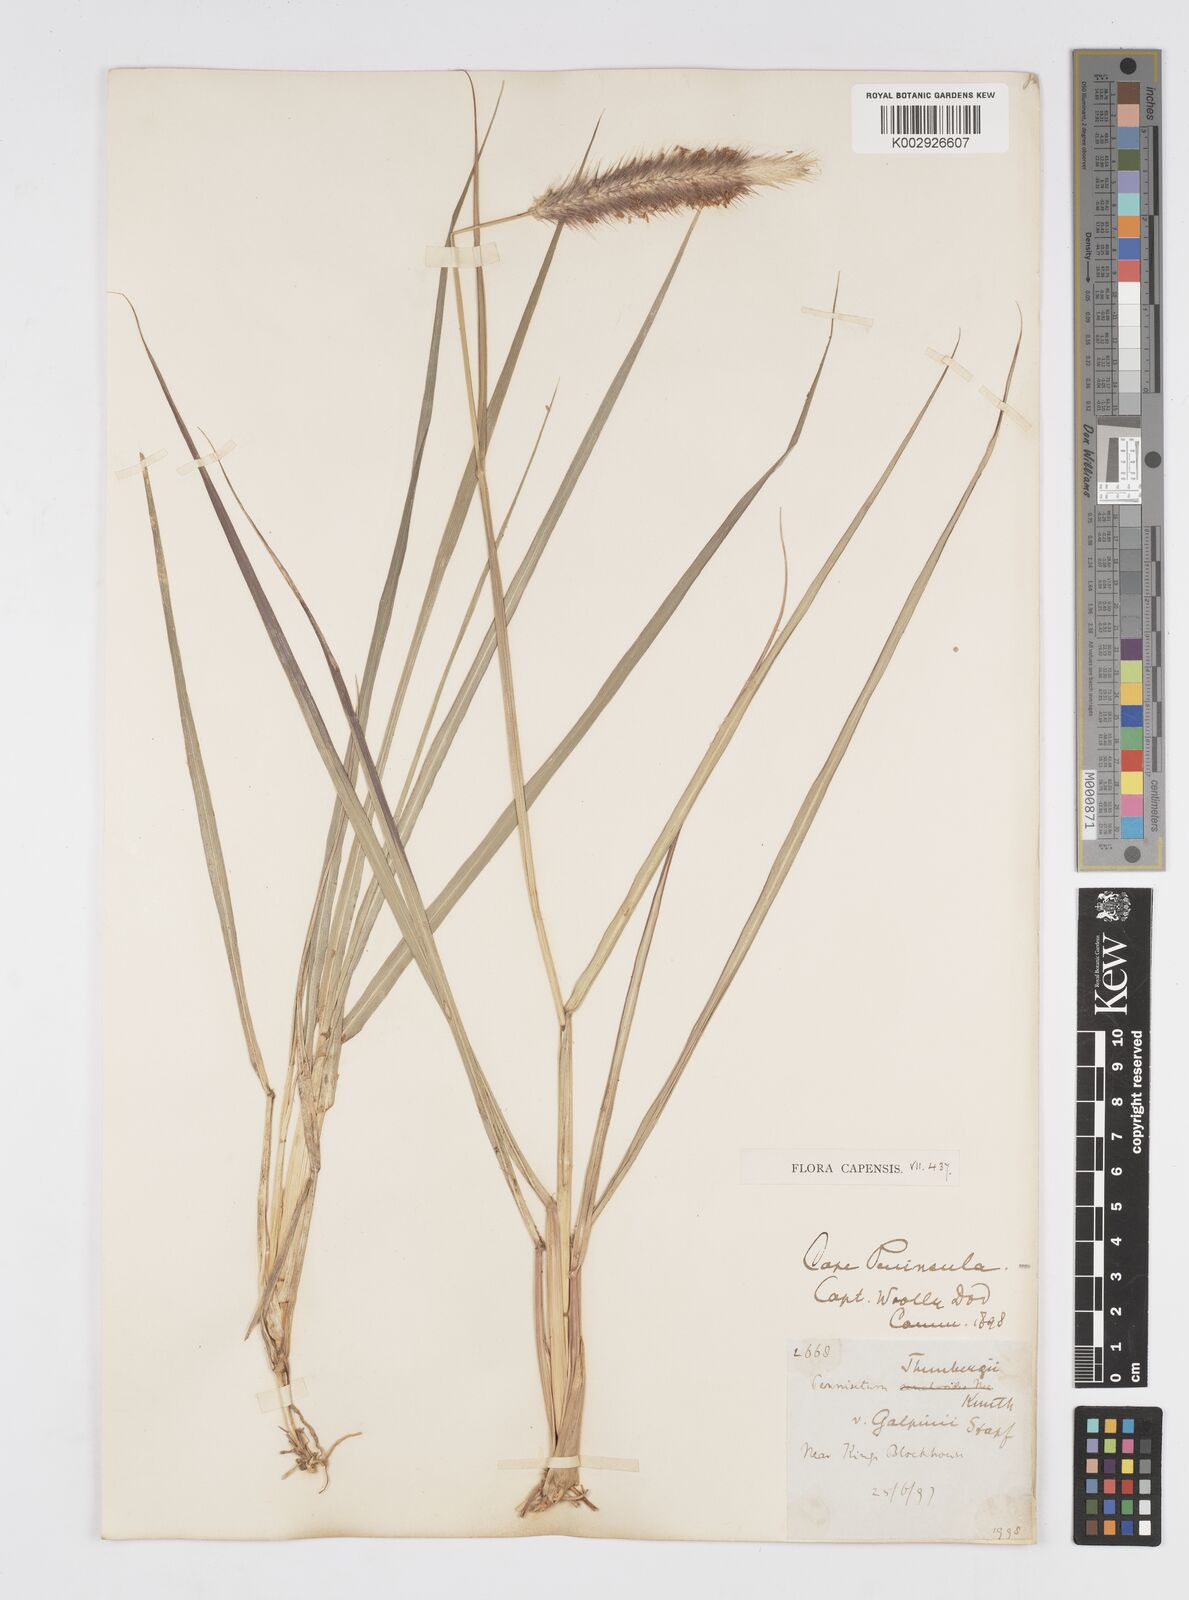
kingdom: Plantae
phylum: Tracheophyta
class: Liliopsida
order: Poales
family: Poaceae
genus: Cenchrus
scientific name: Cenchrus geniculatus
